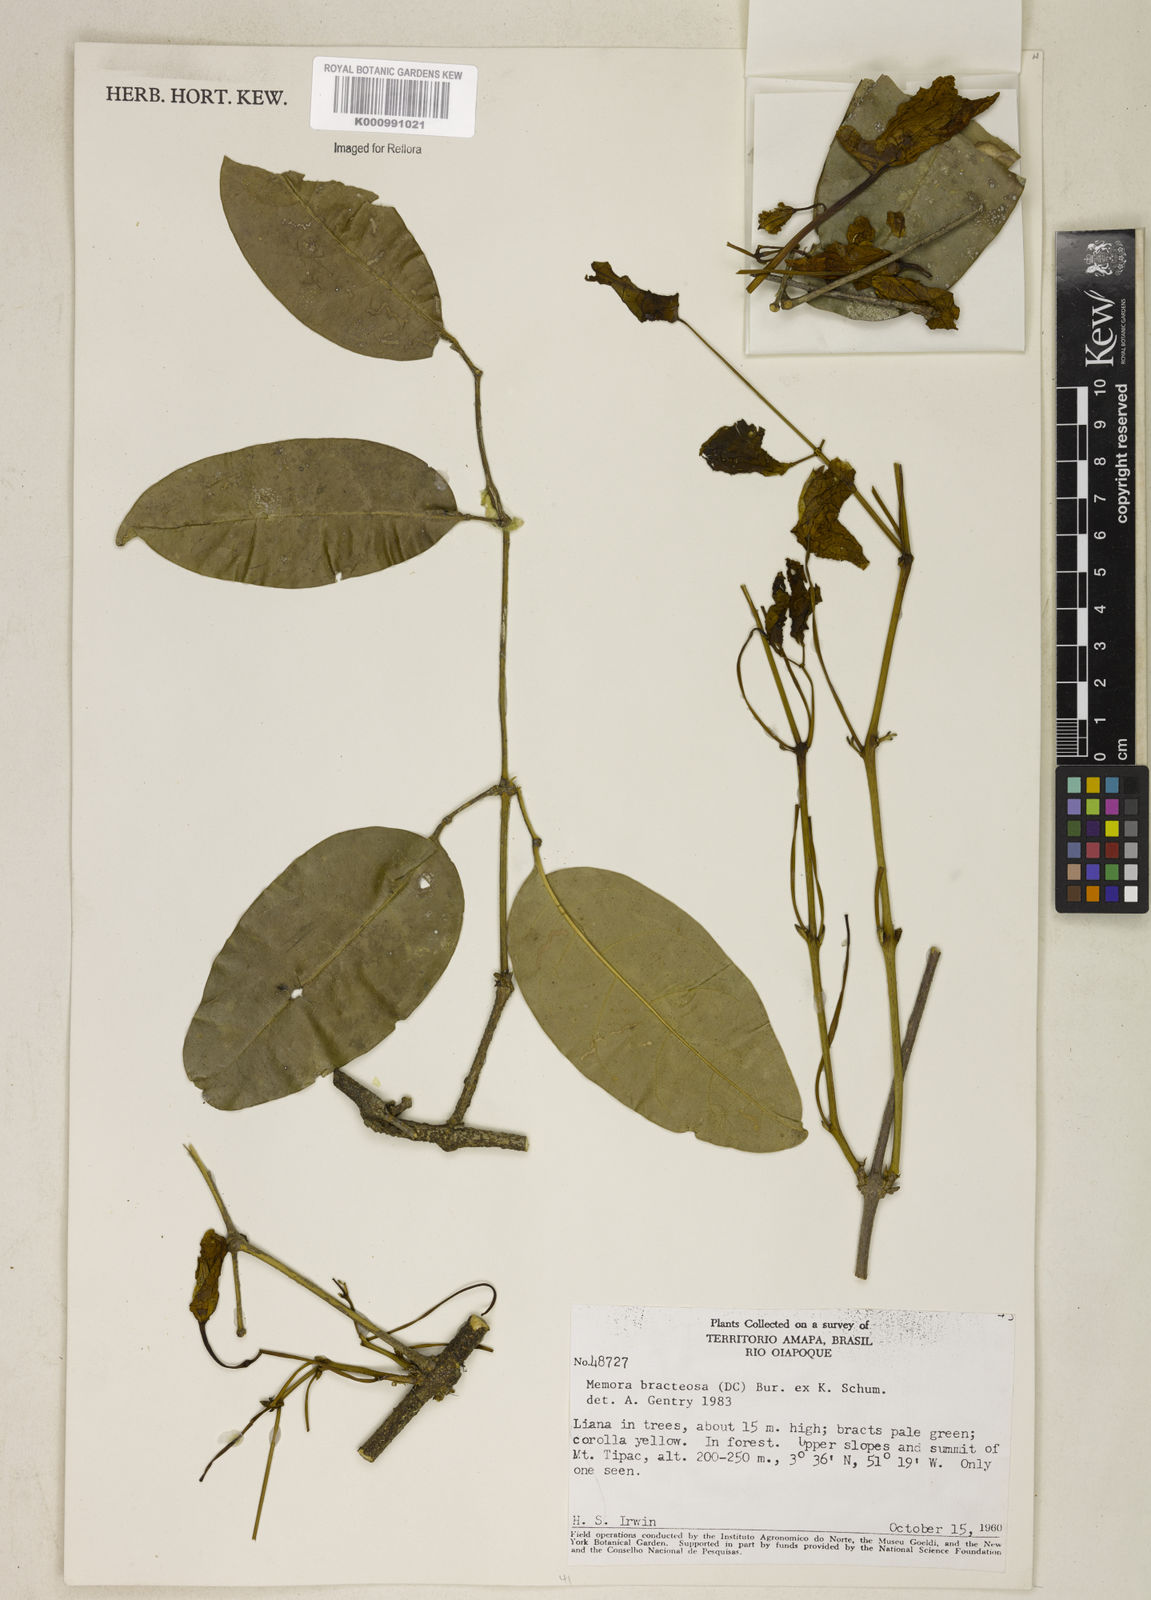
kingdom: Plantae
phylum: Tracheophyta
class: Magnoliopsida
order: Lamiales
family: Bignoniaceae
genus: Adenocalymma
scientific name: Adenocalymma
